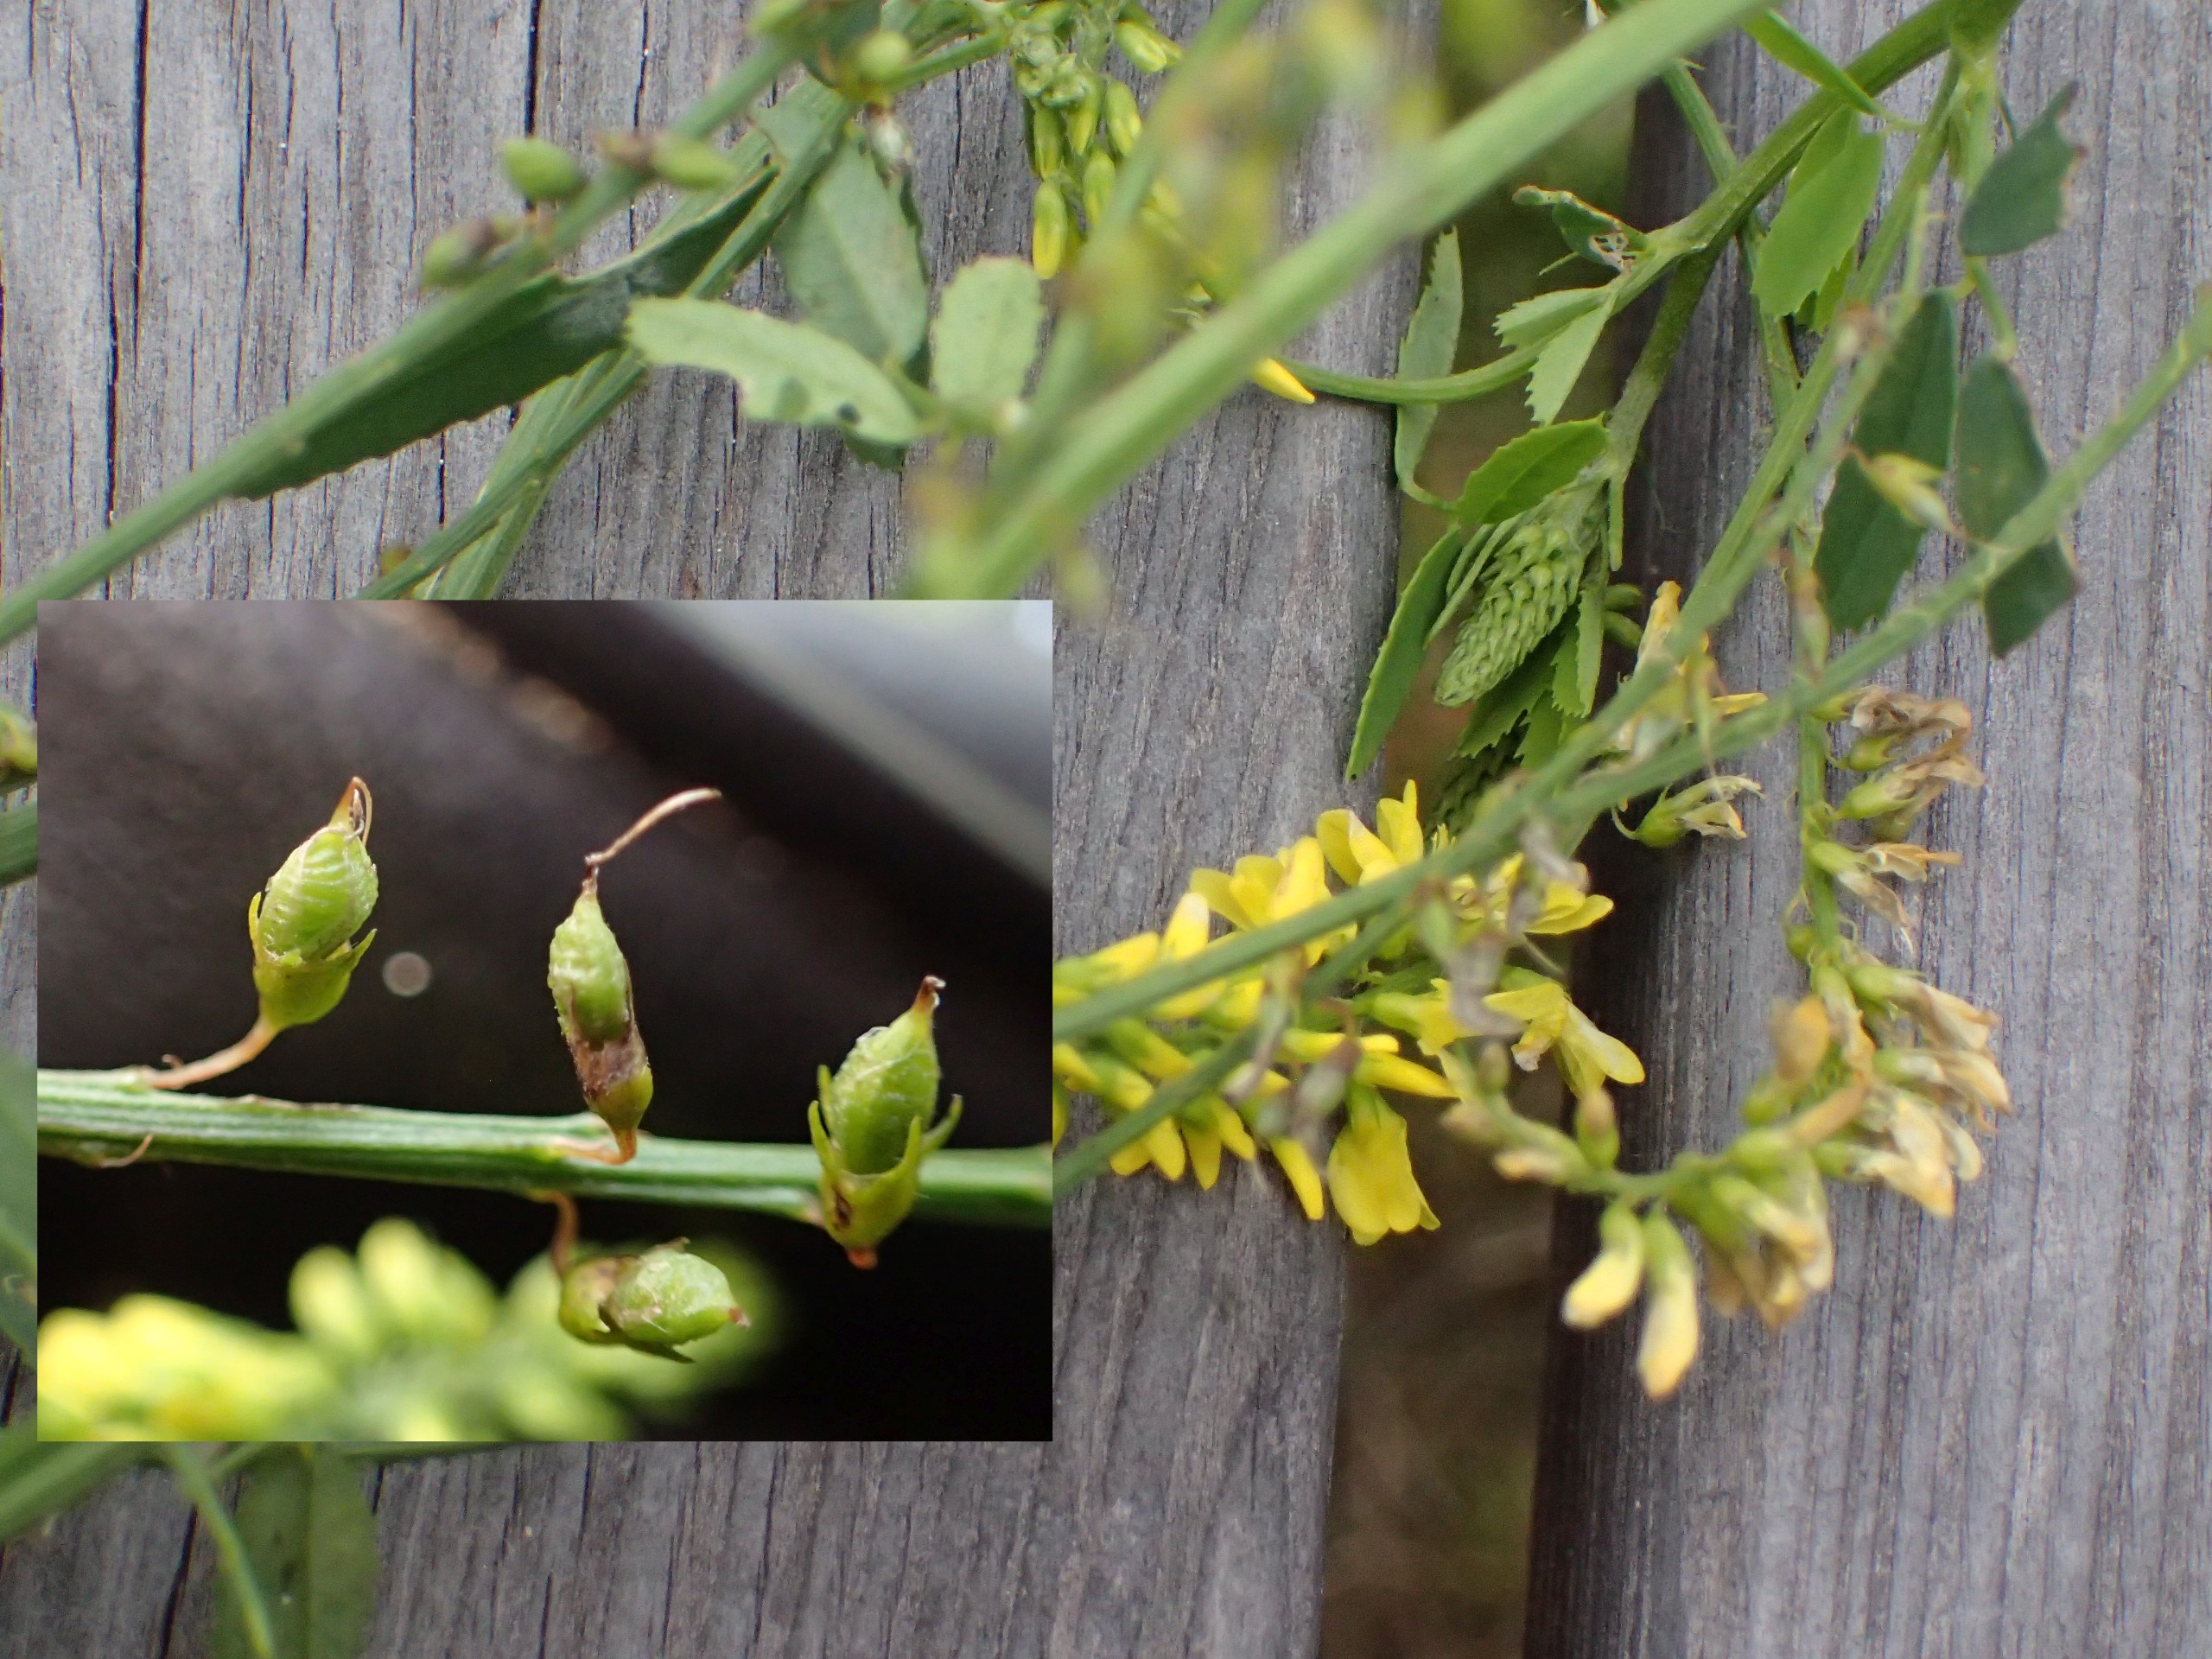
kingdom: Plantae
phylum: Tracheophyta
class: Magnoliopsida
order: Fabales
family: Fabaceae
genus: Melilotus
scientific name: Melilotus officinalis
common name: Mark-stenkløver
